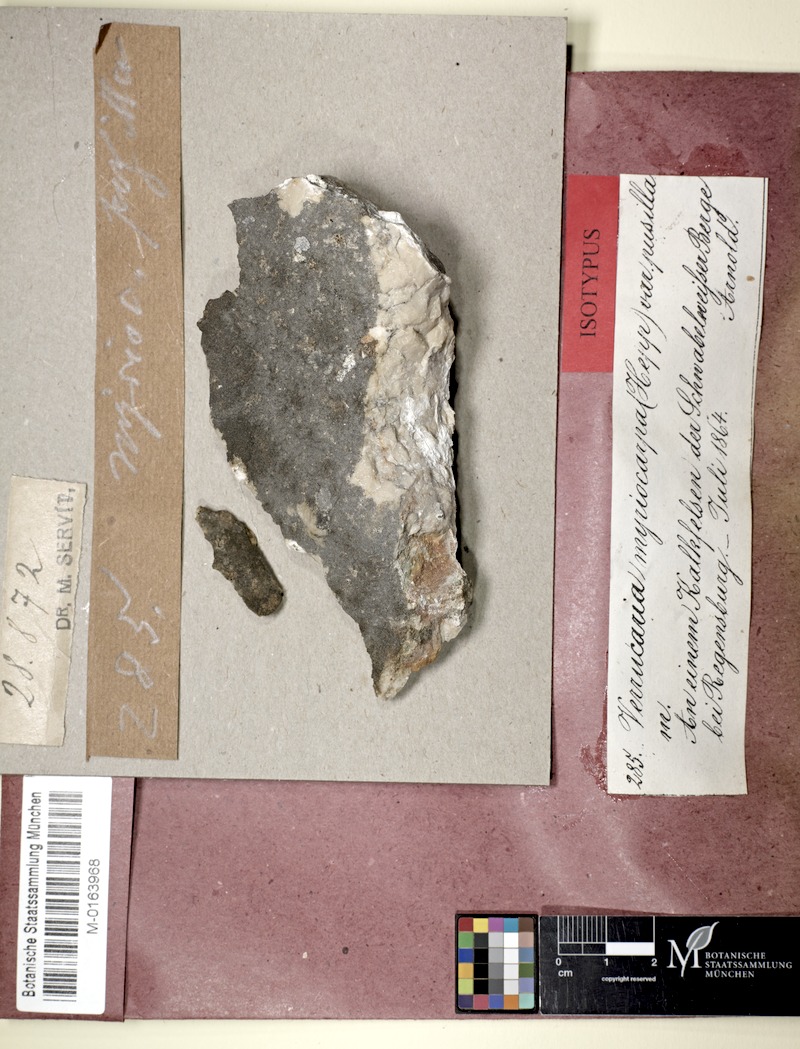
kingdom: Fungi
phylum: Ascomycota
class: Eurotiomycetes
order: Verrucariales
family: Verrucariaceae
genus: Verrucaria
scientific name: Verrucaria murina
